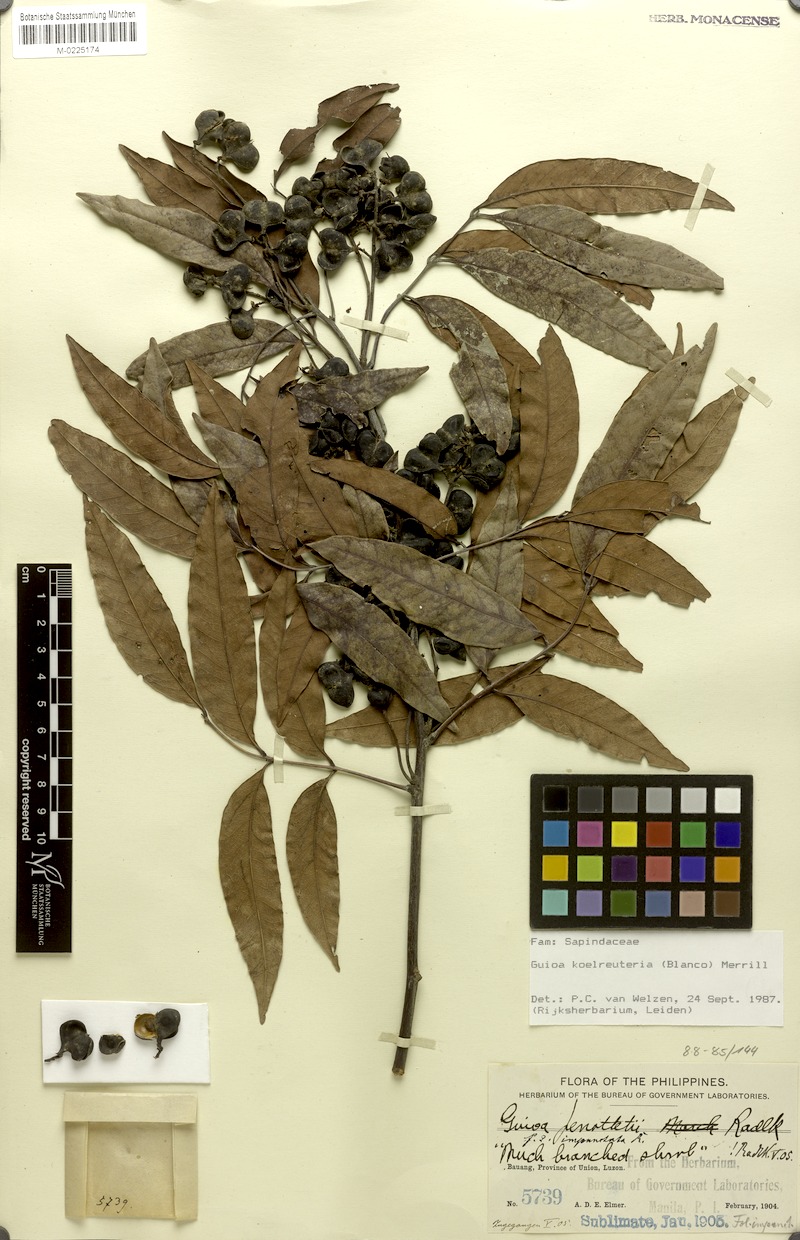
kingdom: Plantae
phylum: Tracheophyta
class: Magnoliopsida
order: Sapindales
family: Sapindaceae
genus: Guioa
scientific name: Guioa koelreuteria
